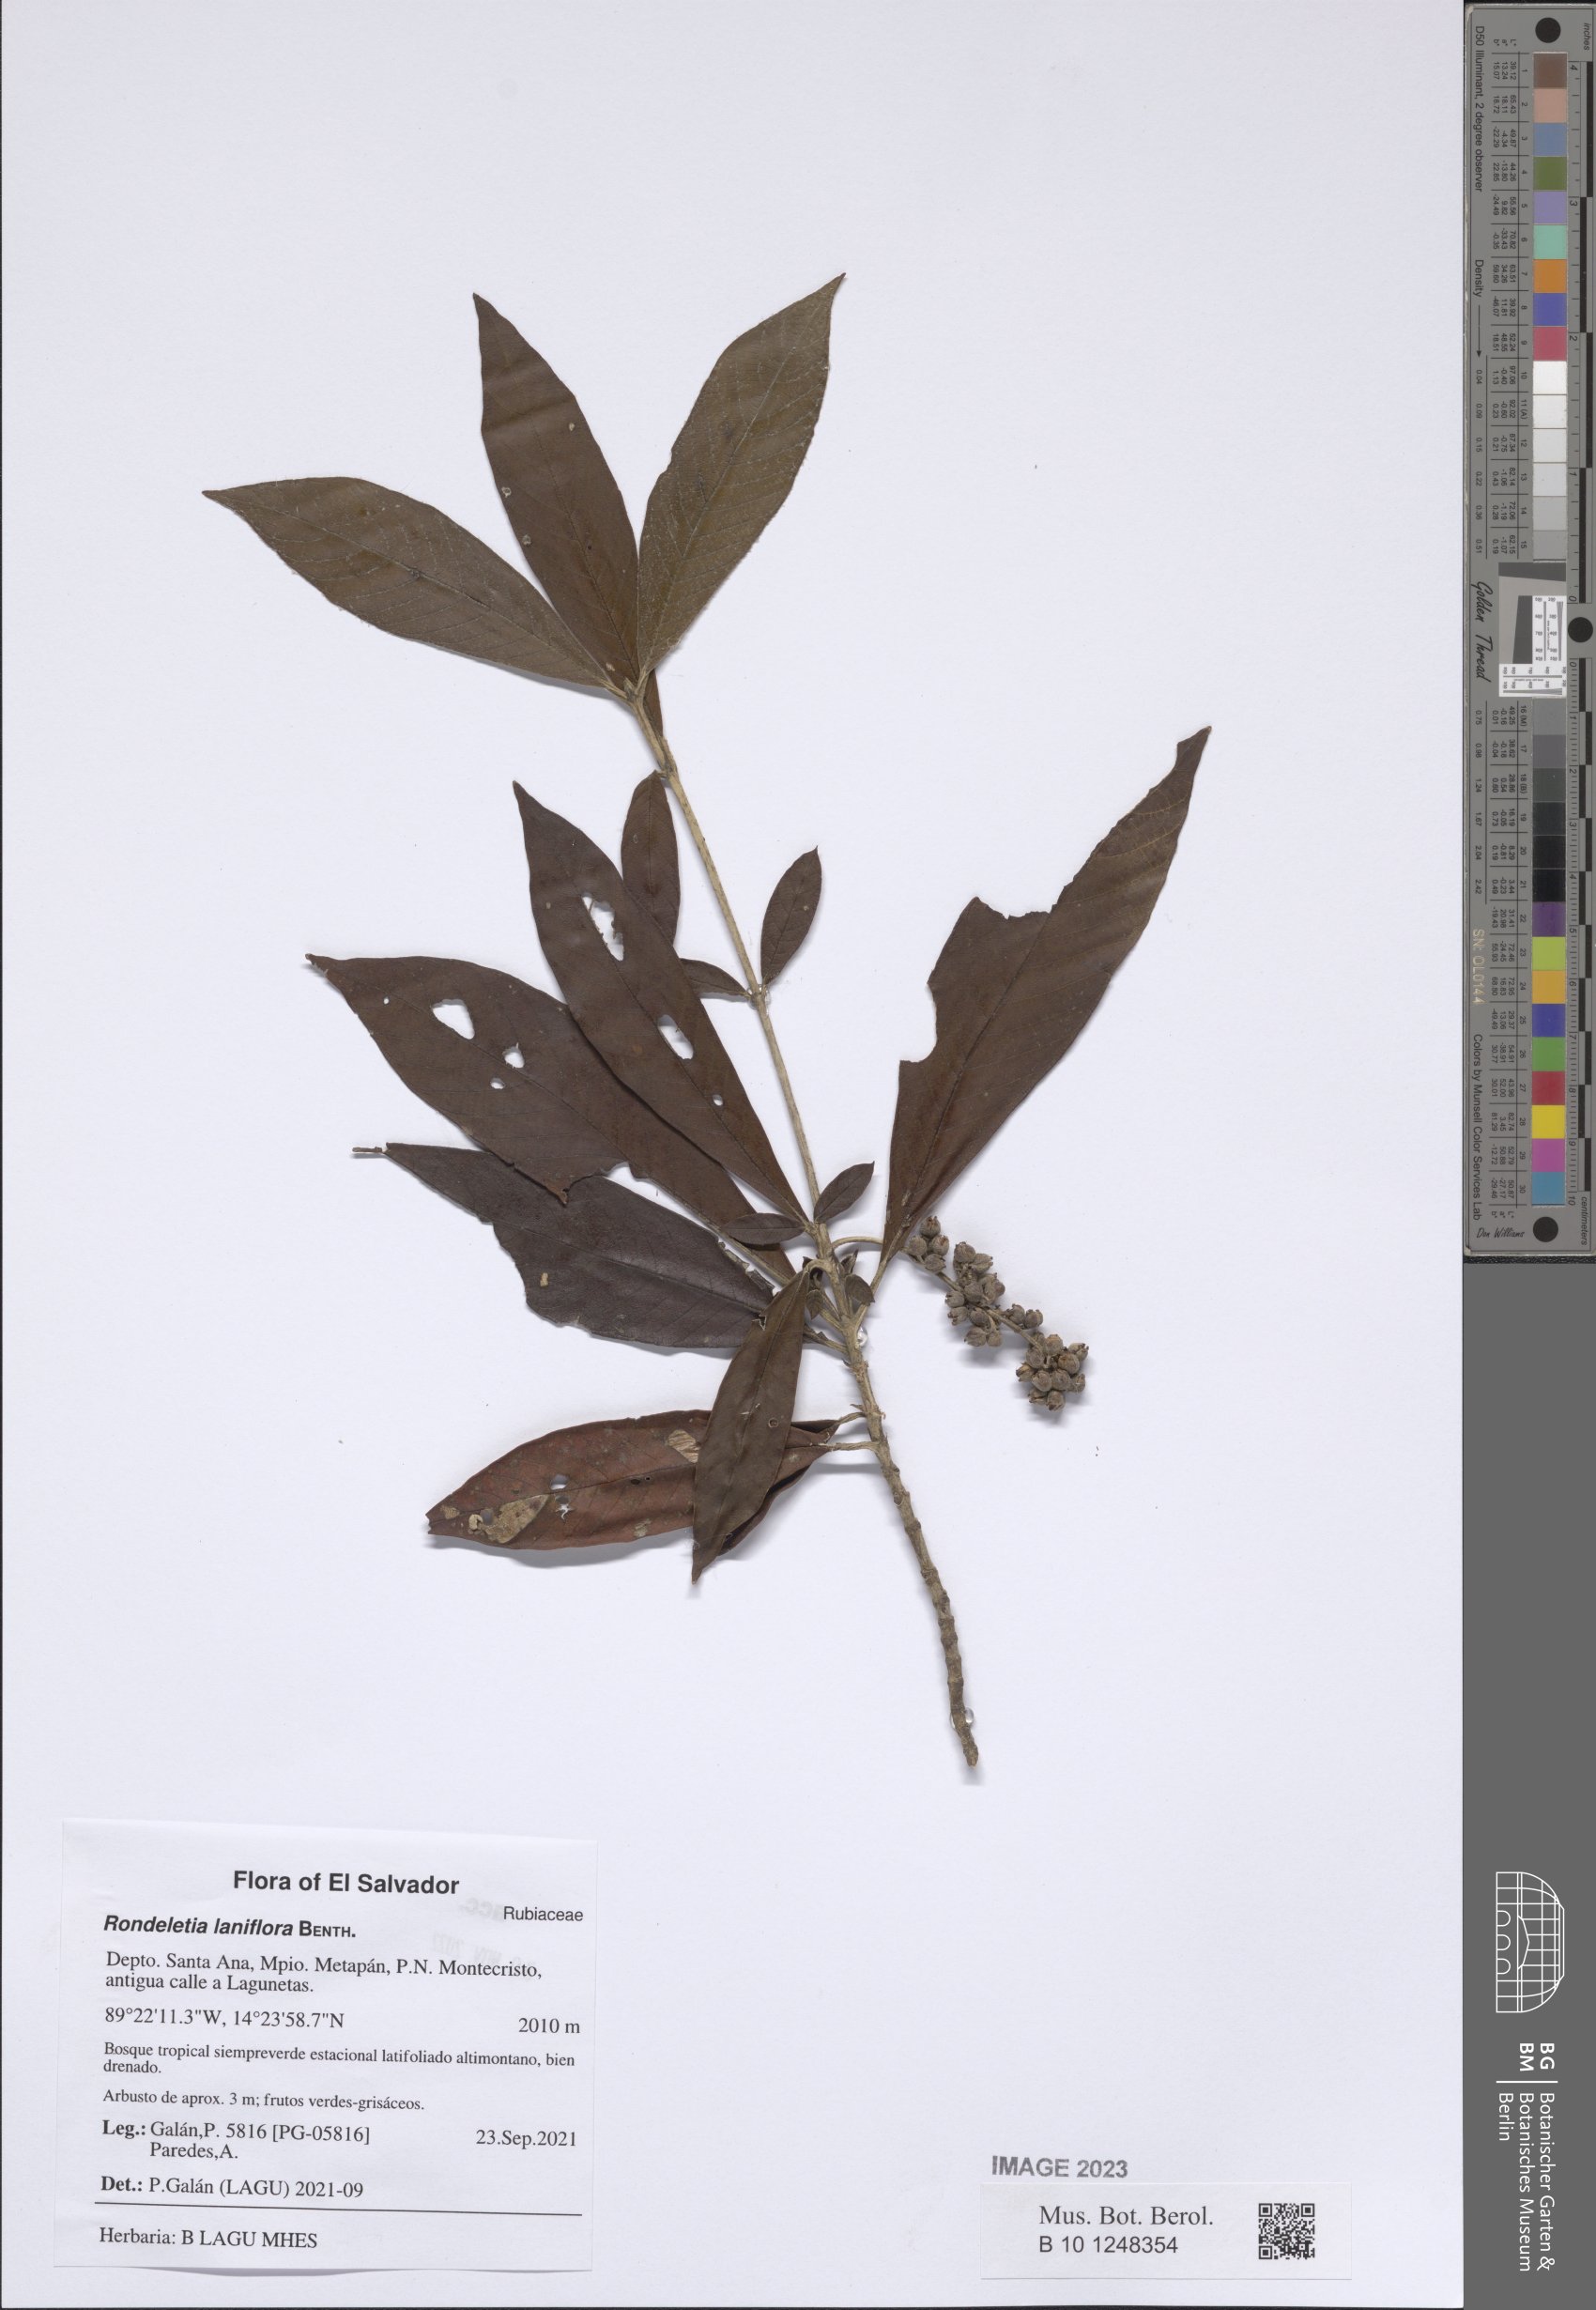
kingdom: Plantae
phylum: Tracheophyta
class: Magnoliopsida
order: Gentianales
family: Rubiaceae
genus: Arachnothryx
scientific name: Arachnothryx laniflora
